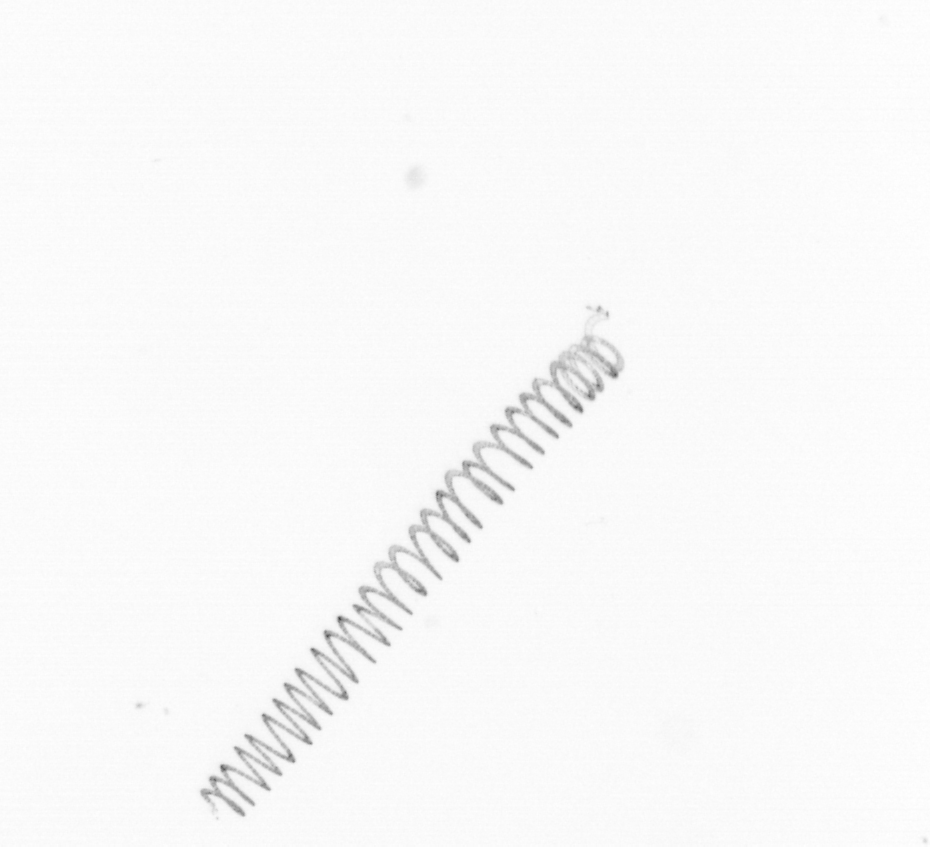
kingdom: Chromista
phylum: Ochrophyta
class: Bacillariophyceae
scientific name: Bacillariophyceae
